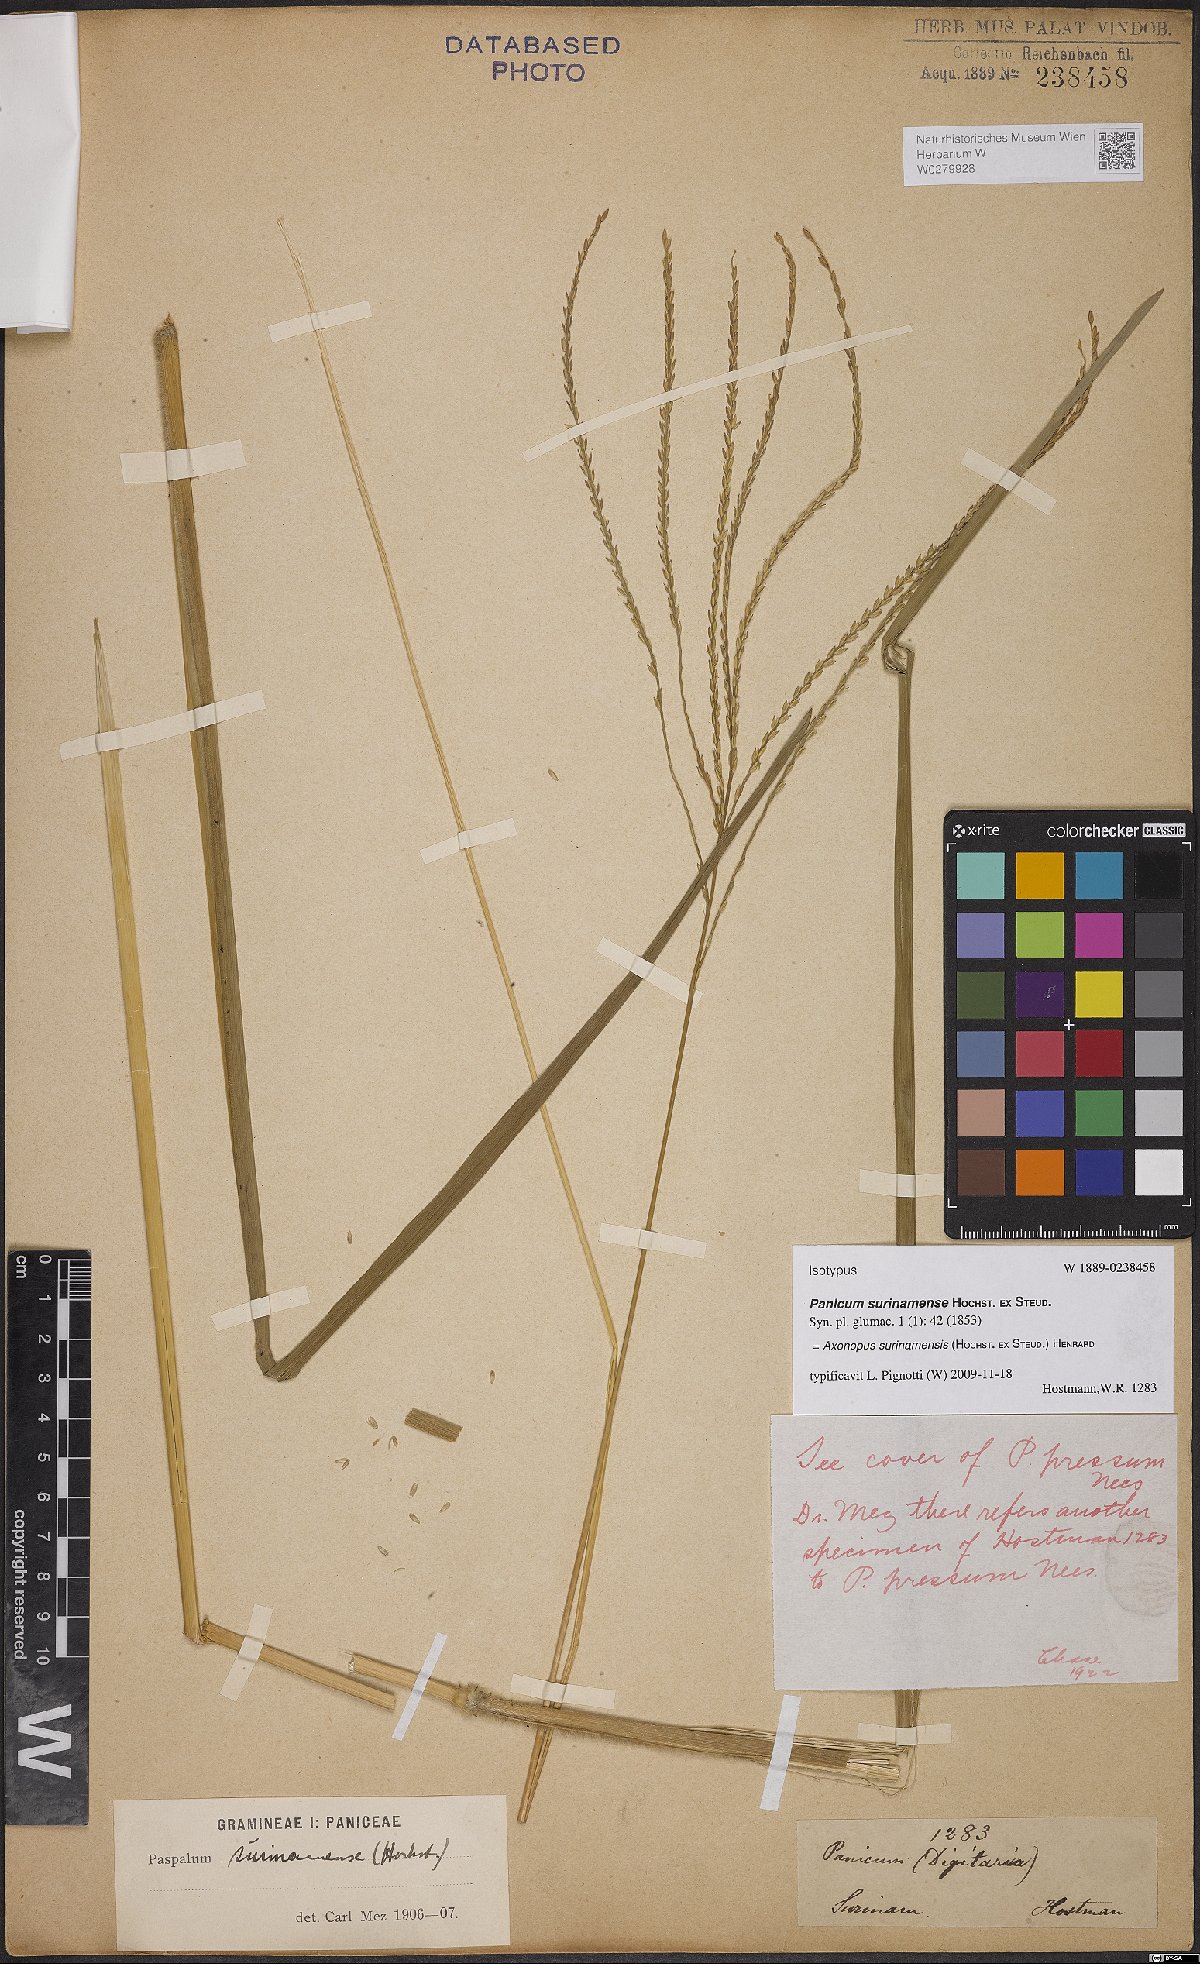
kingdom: Plantae
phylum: Tracheophyta
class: Liliopsida
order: Poales
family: Poaceae
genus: Axonopus
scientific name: Axonopus surinamensis
